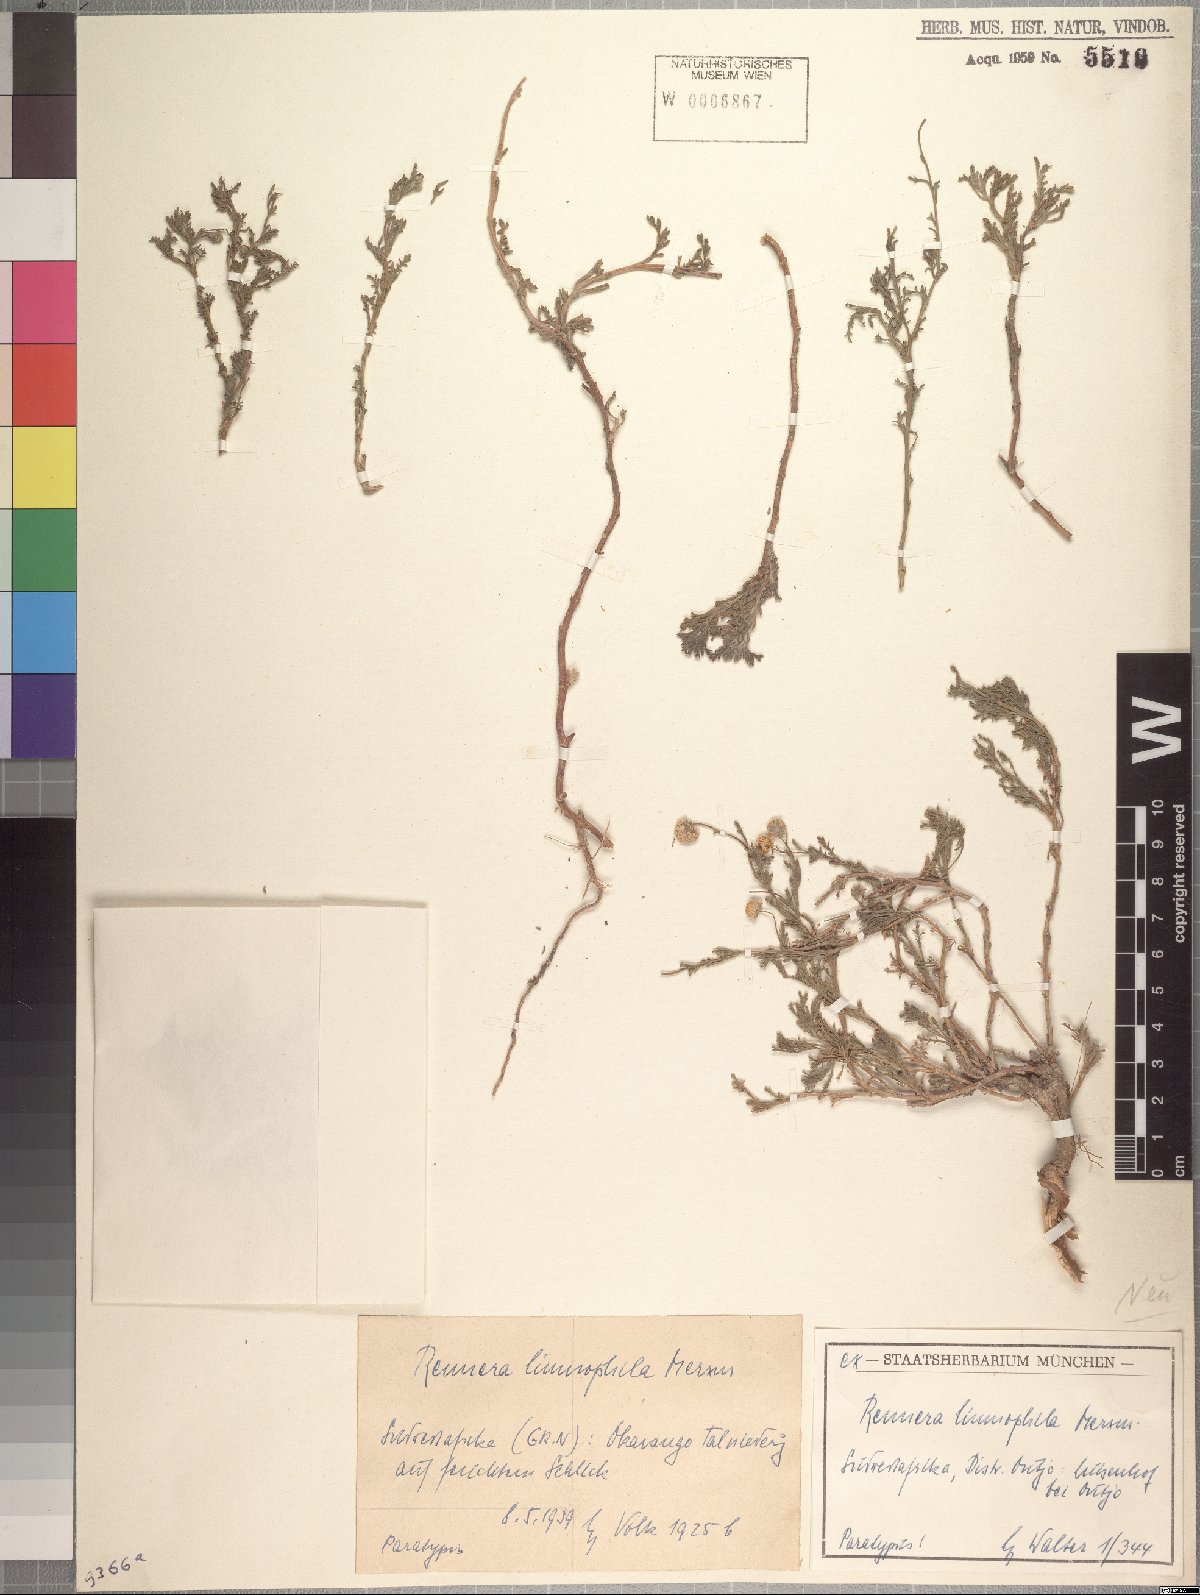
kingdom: Plantae
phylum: Tracheophyta
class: Magnoliopsida
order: Asterales
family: Asteraceae
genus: Pentzia
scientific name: Pentzia limnophila
